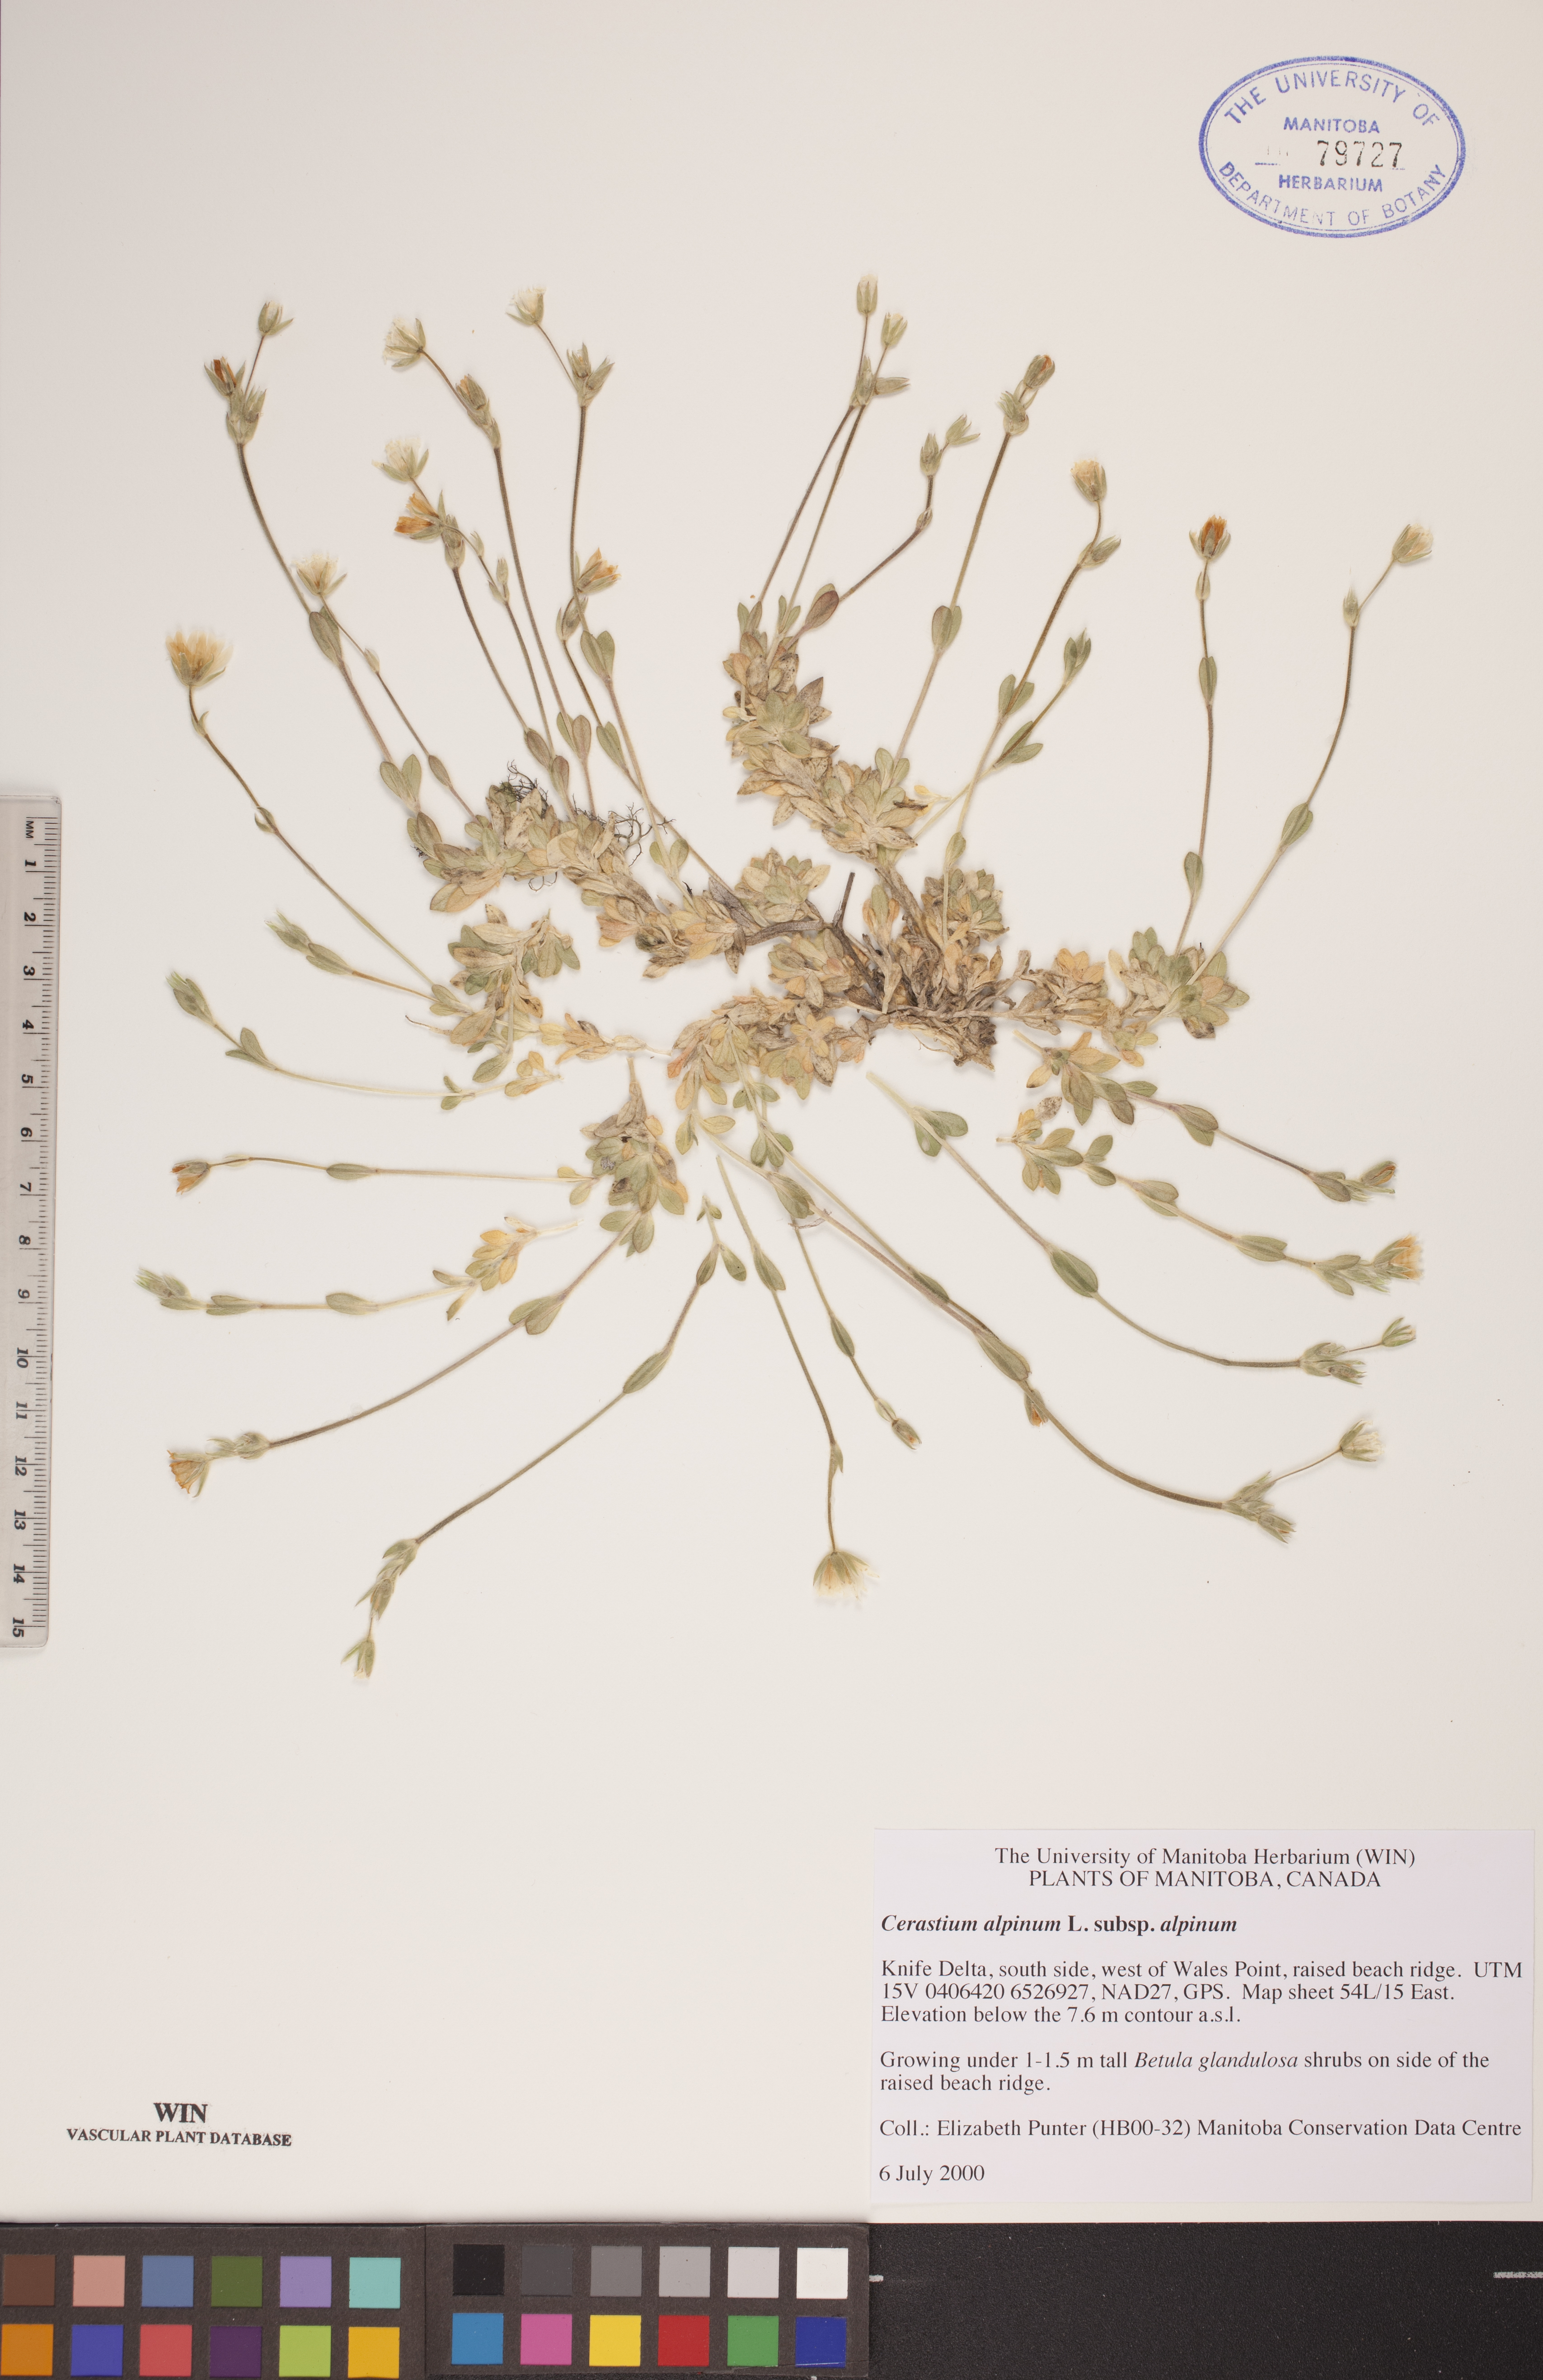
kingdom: Plantae
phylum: Tracheophyta
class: Magnoliopsida
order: Caryophyllales
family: Caryophyllaceae
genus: Cerastium
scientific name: Cerastium alpinum
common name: Alpine mouse-ear
